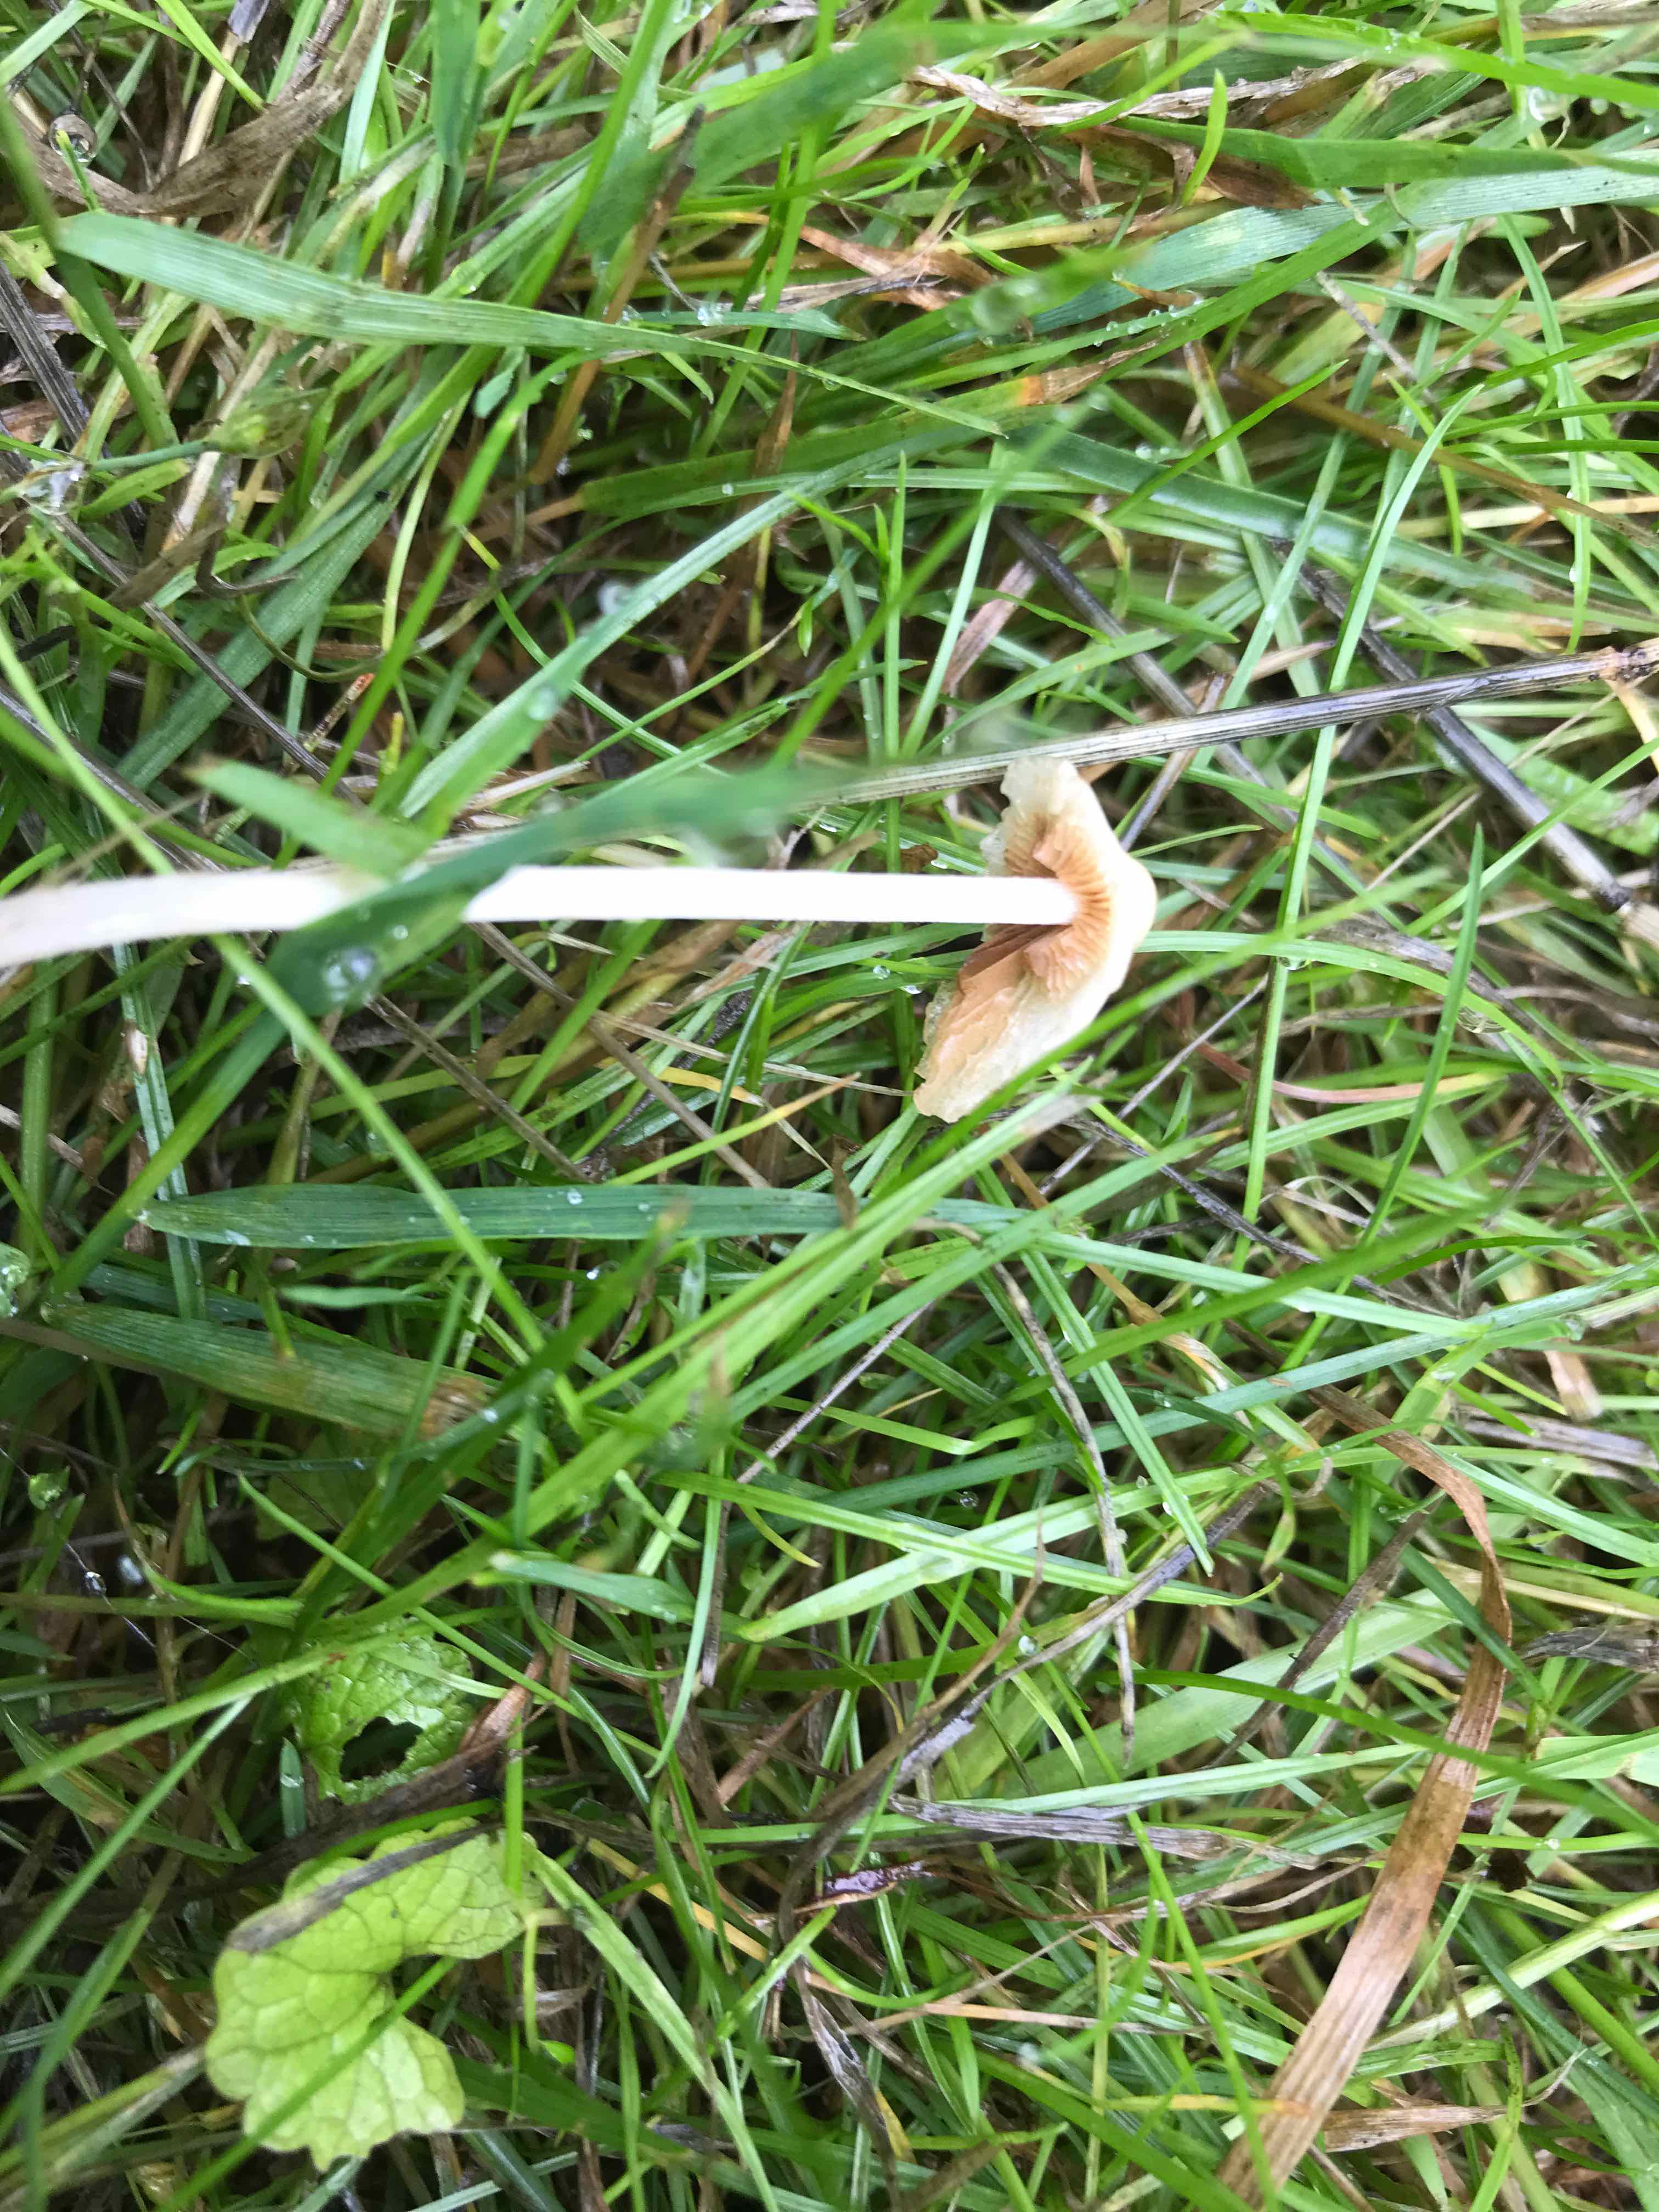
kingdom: Fungi
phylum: Basidiomycota
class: Agaricomycetes
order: Agaricales
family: Bolbitiaceae
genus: Conocybe
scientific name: Conocybe apala
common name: mælkehvid keglehat
